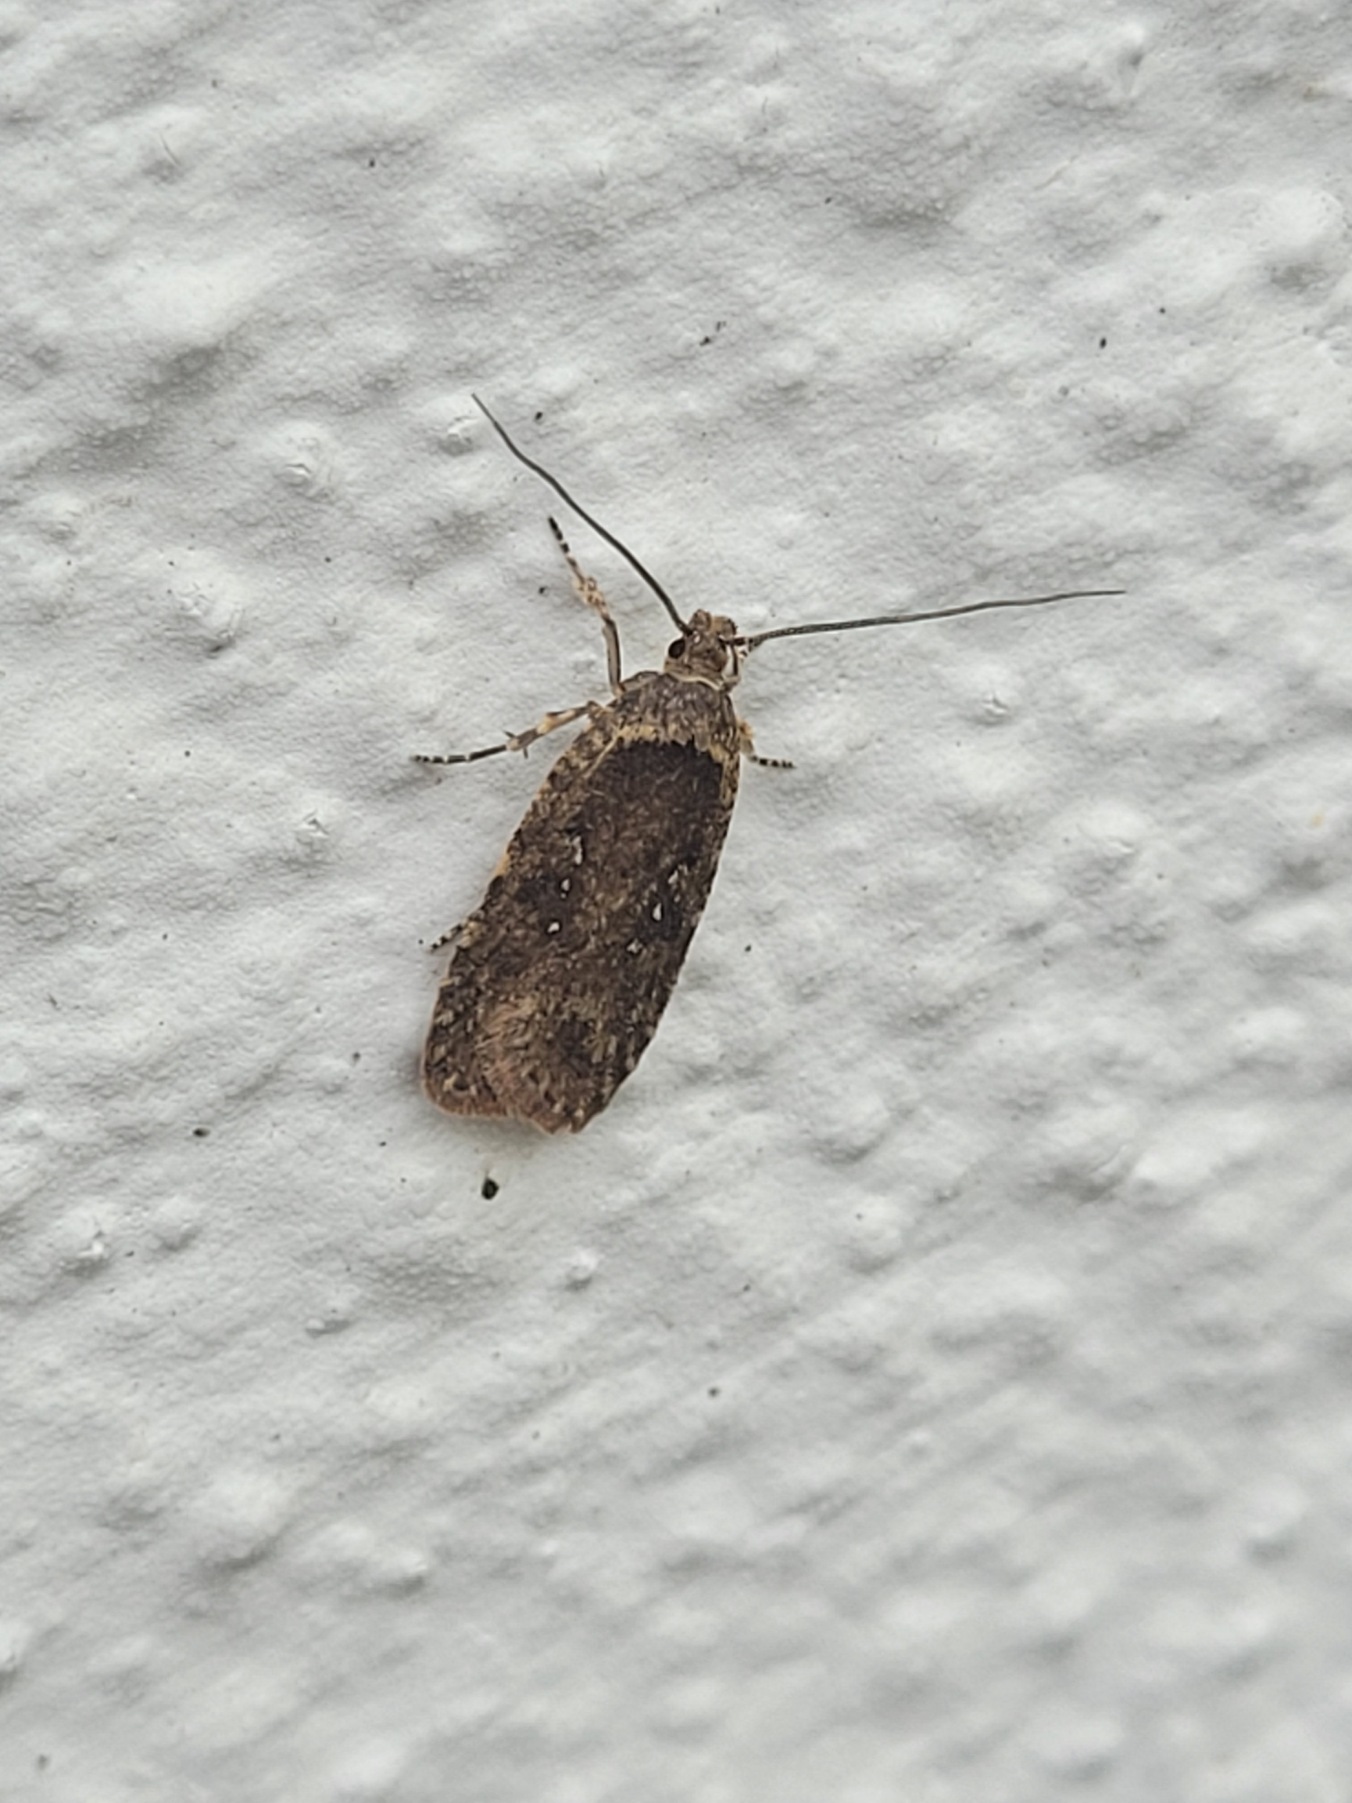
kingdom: Animalia
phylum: Arthropoda
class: Insecta
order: Lepidoptera
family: Depressariidae
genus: Agonopterix
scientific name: Agonopterix heracliana
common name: Almindelig fladmøl
